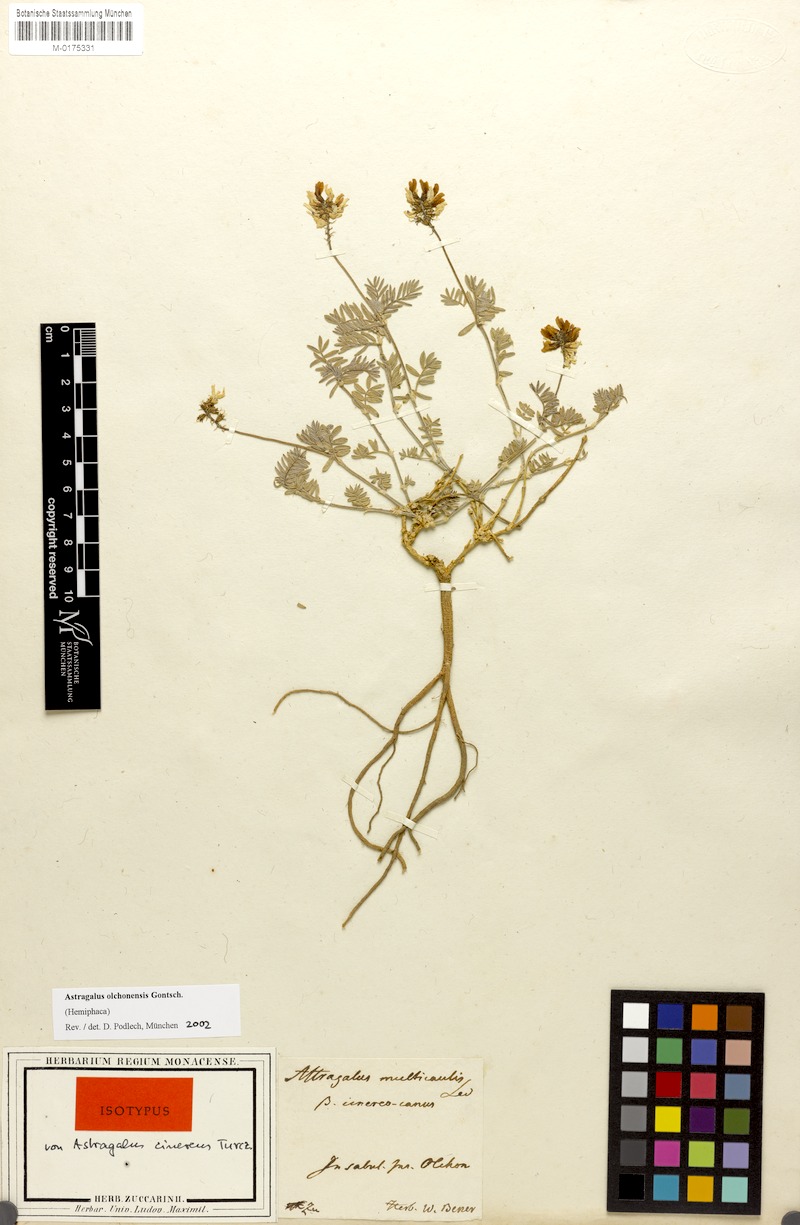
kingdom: Plantae
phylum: Tracheophyta
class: Magnoliopsida
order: Fabales
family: Fabaceae
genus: Astragalus
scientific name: Astragalus olchonensis
